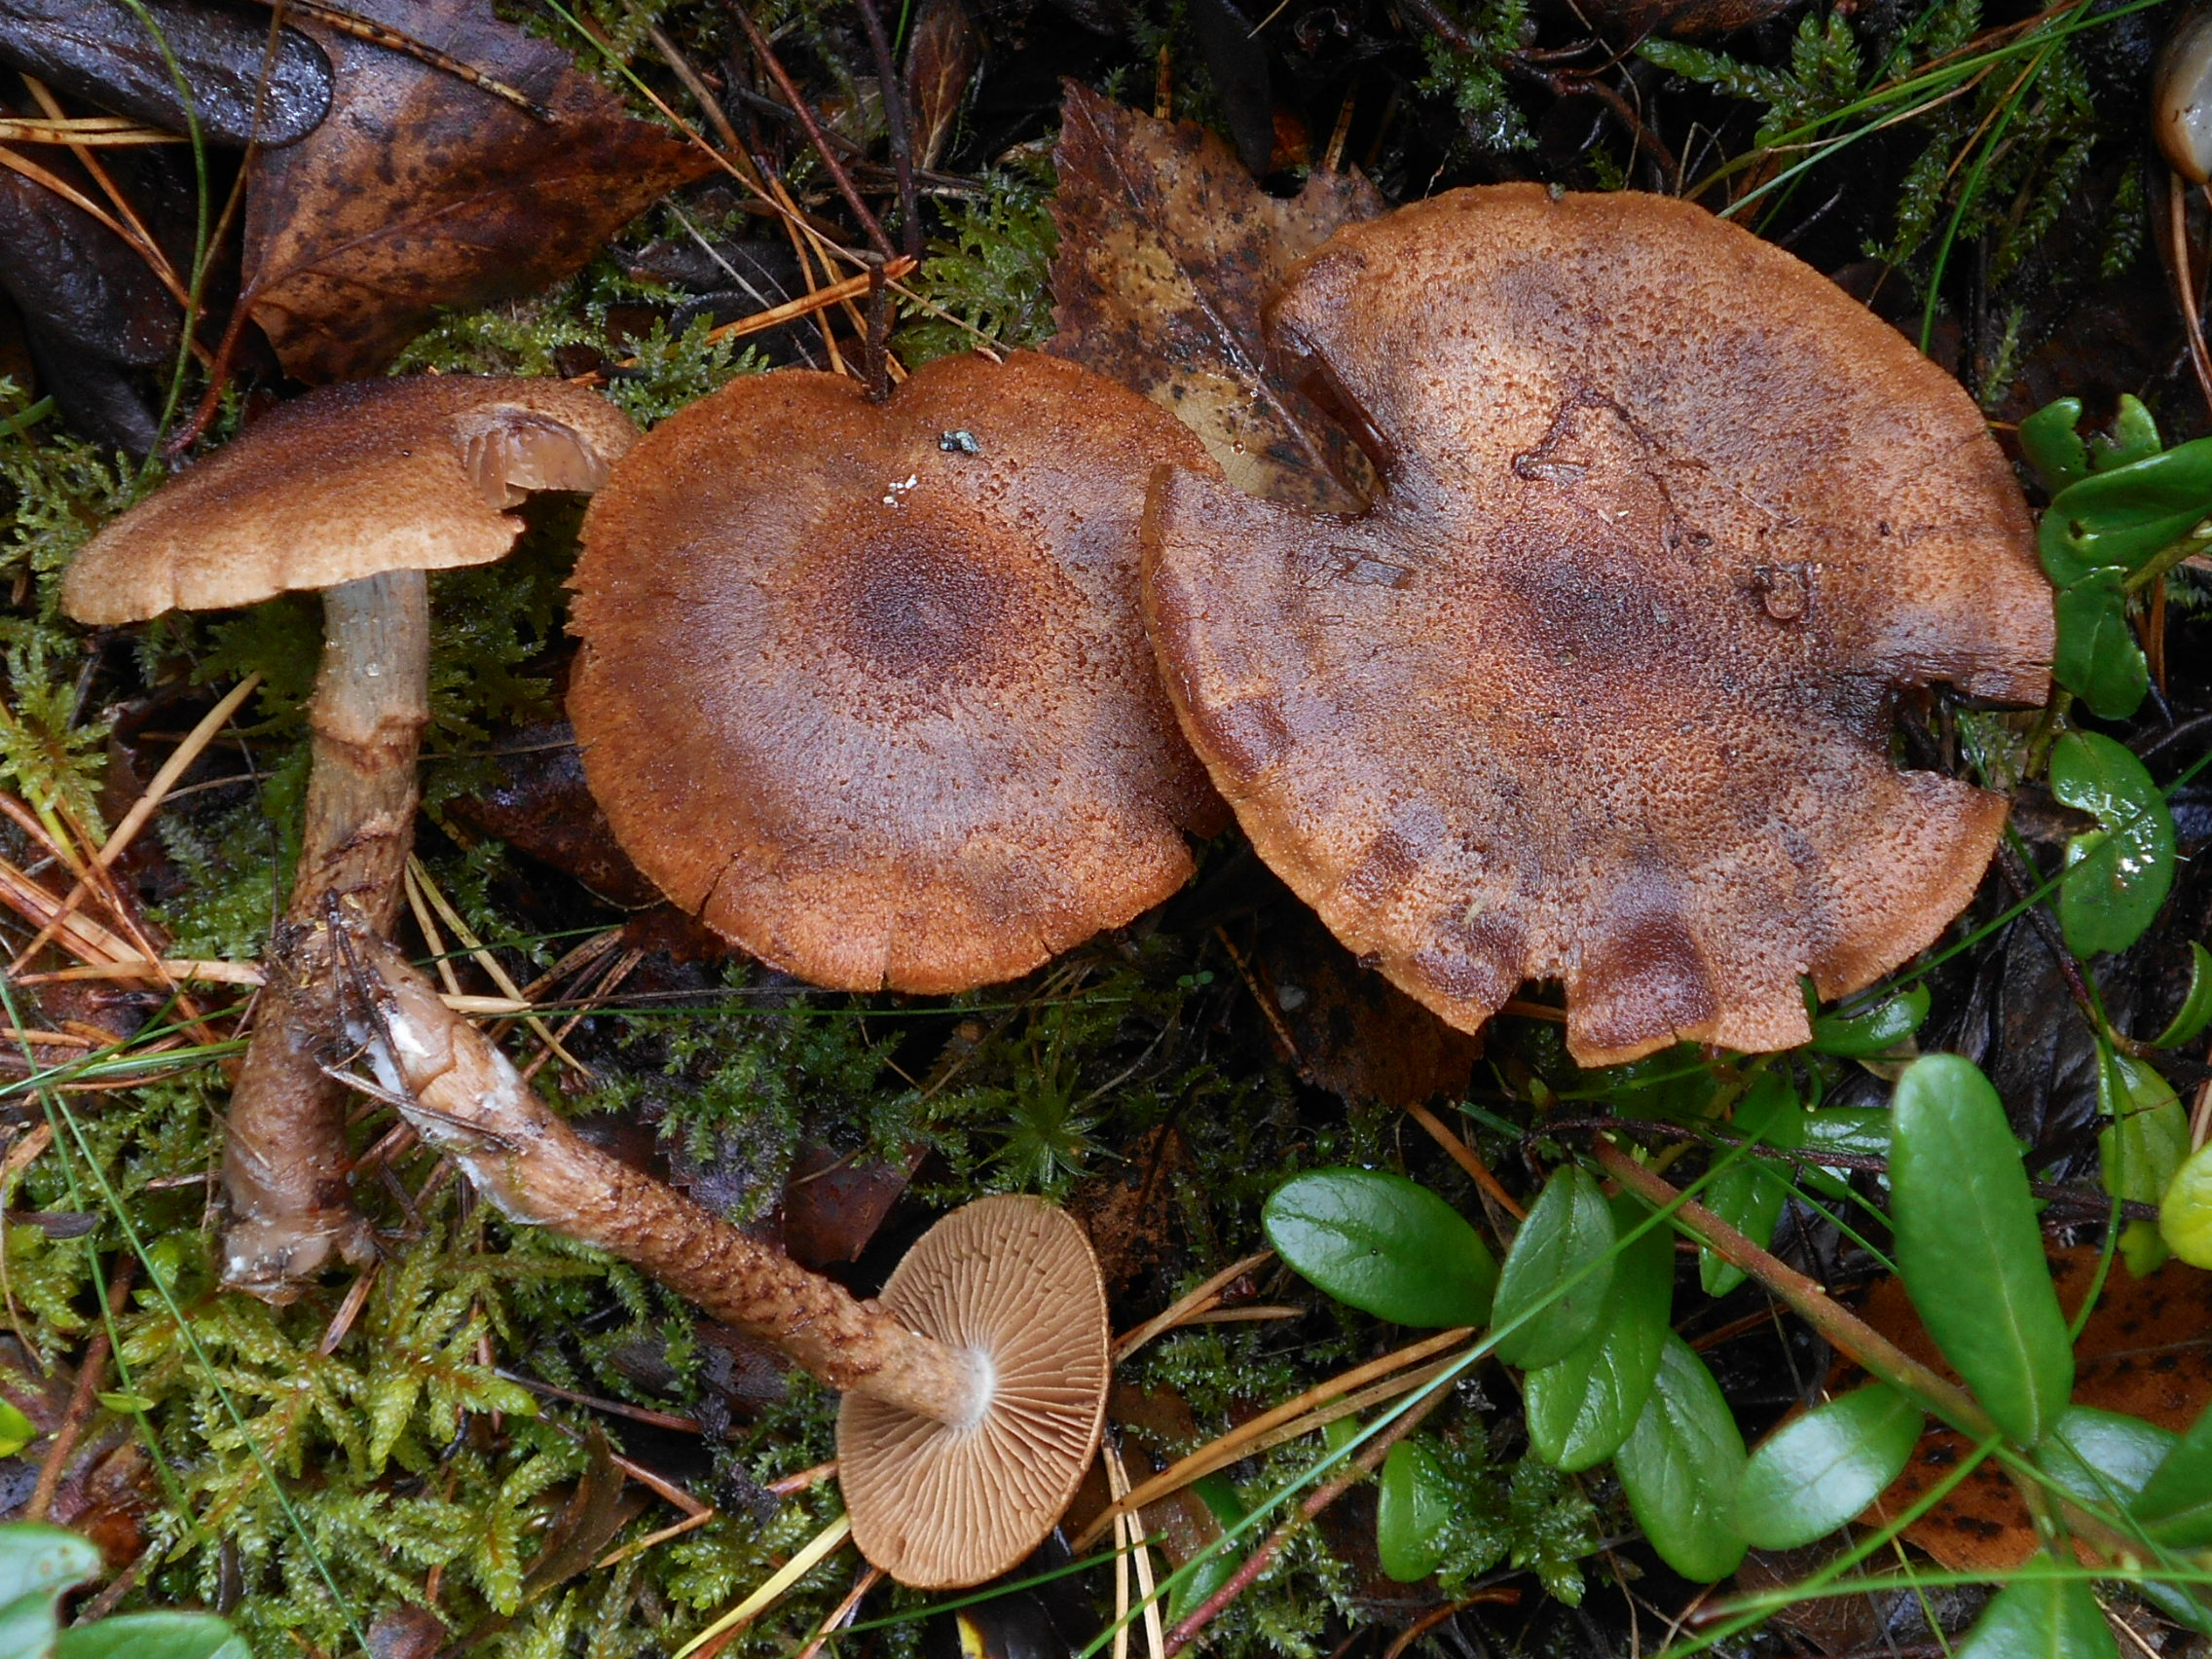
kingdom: Fungi
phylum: Basidiomycota
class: Agaricomycetes
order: Agaricales
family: Cortinariaceae
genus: Cortinarius
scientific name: Cortinarius pholideus
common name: Scaly webcap
